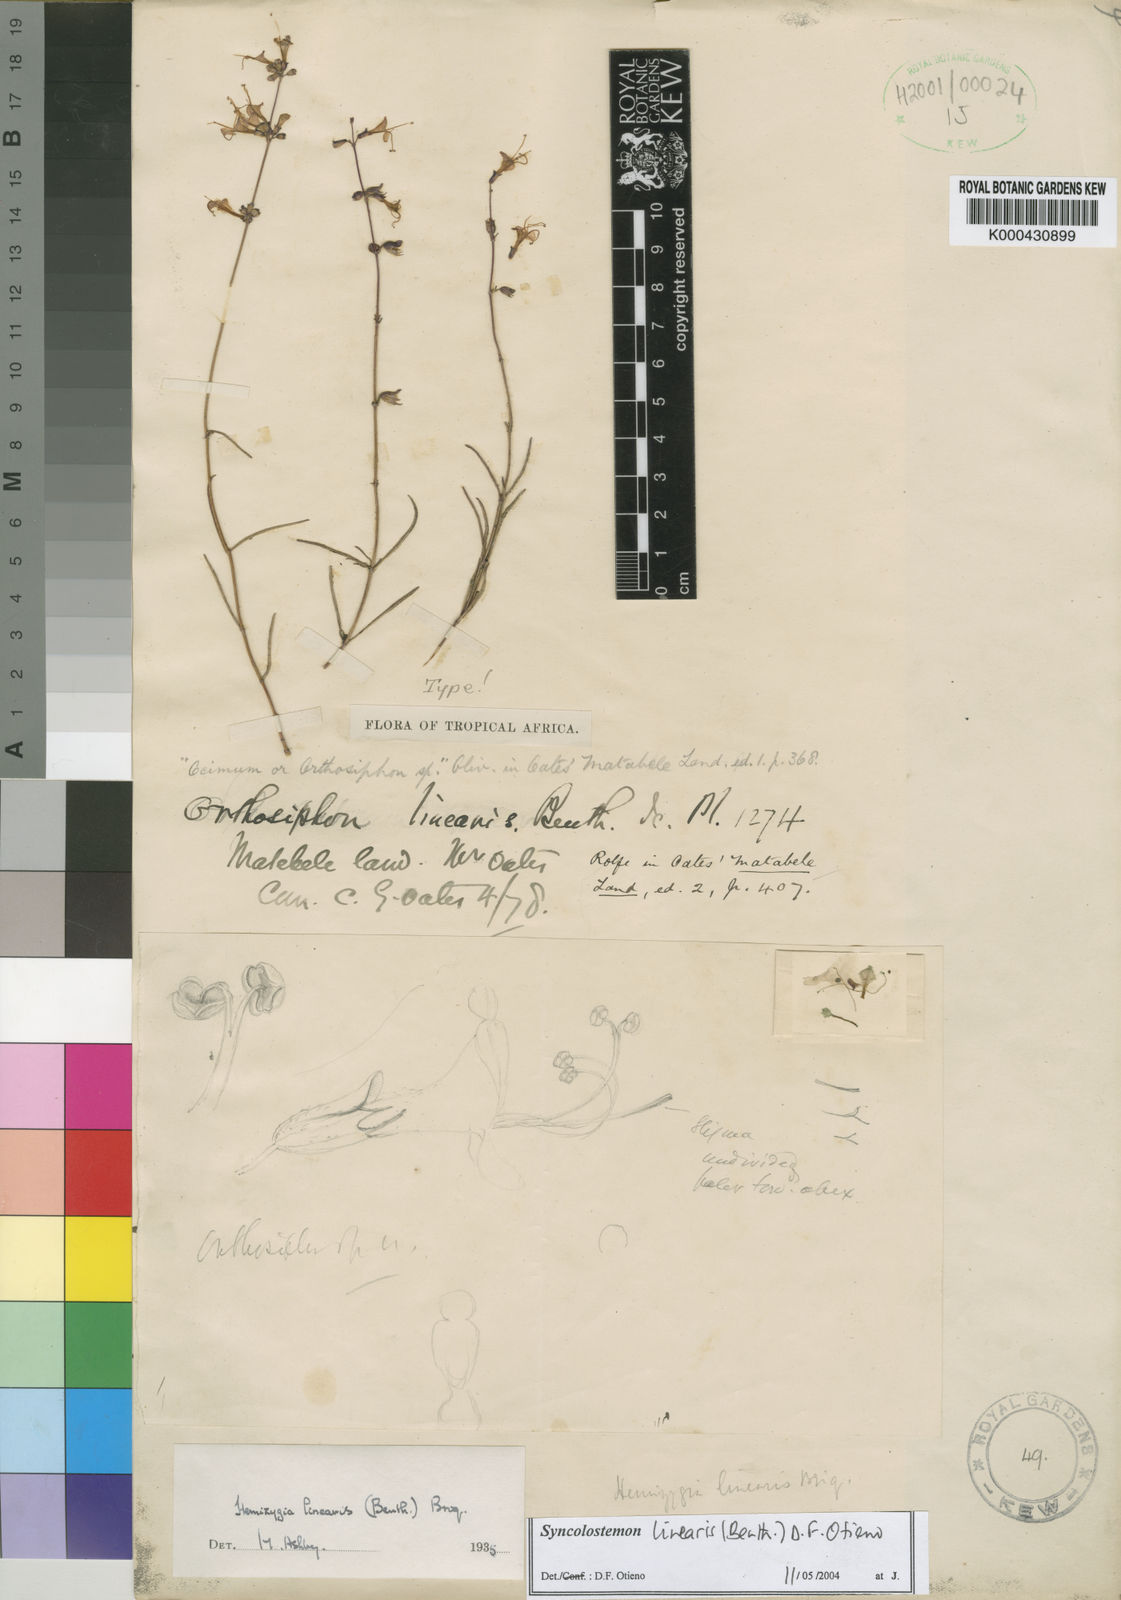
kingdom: Plantae
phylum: Tracheophyta
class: Magnoliopsida
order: Lamiales
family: Lamiaceae
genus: Syncolostemon
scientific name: Syncolostemon linearis
